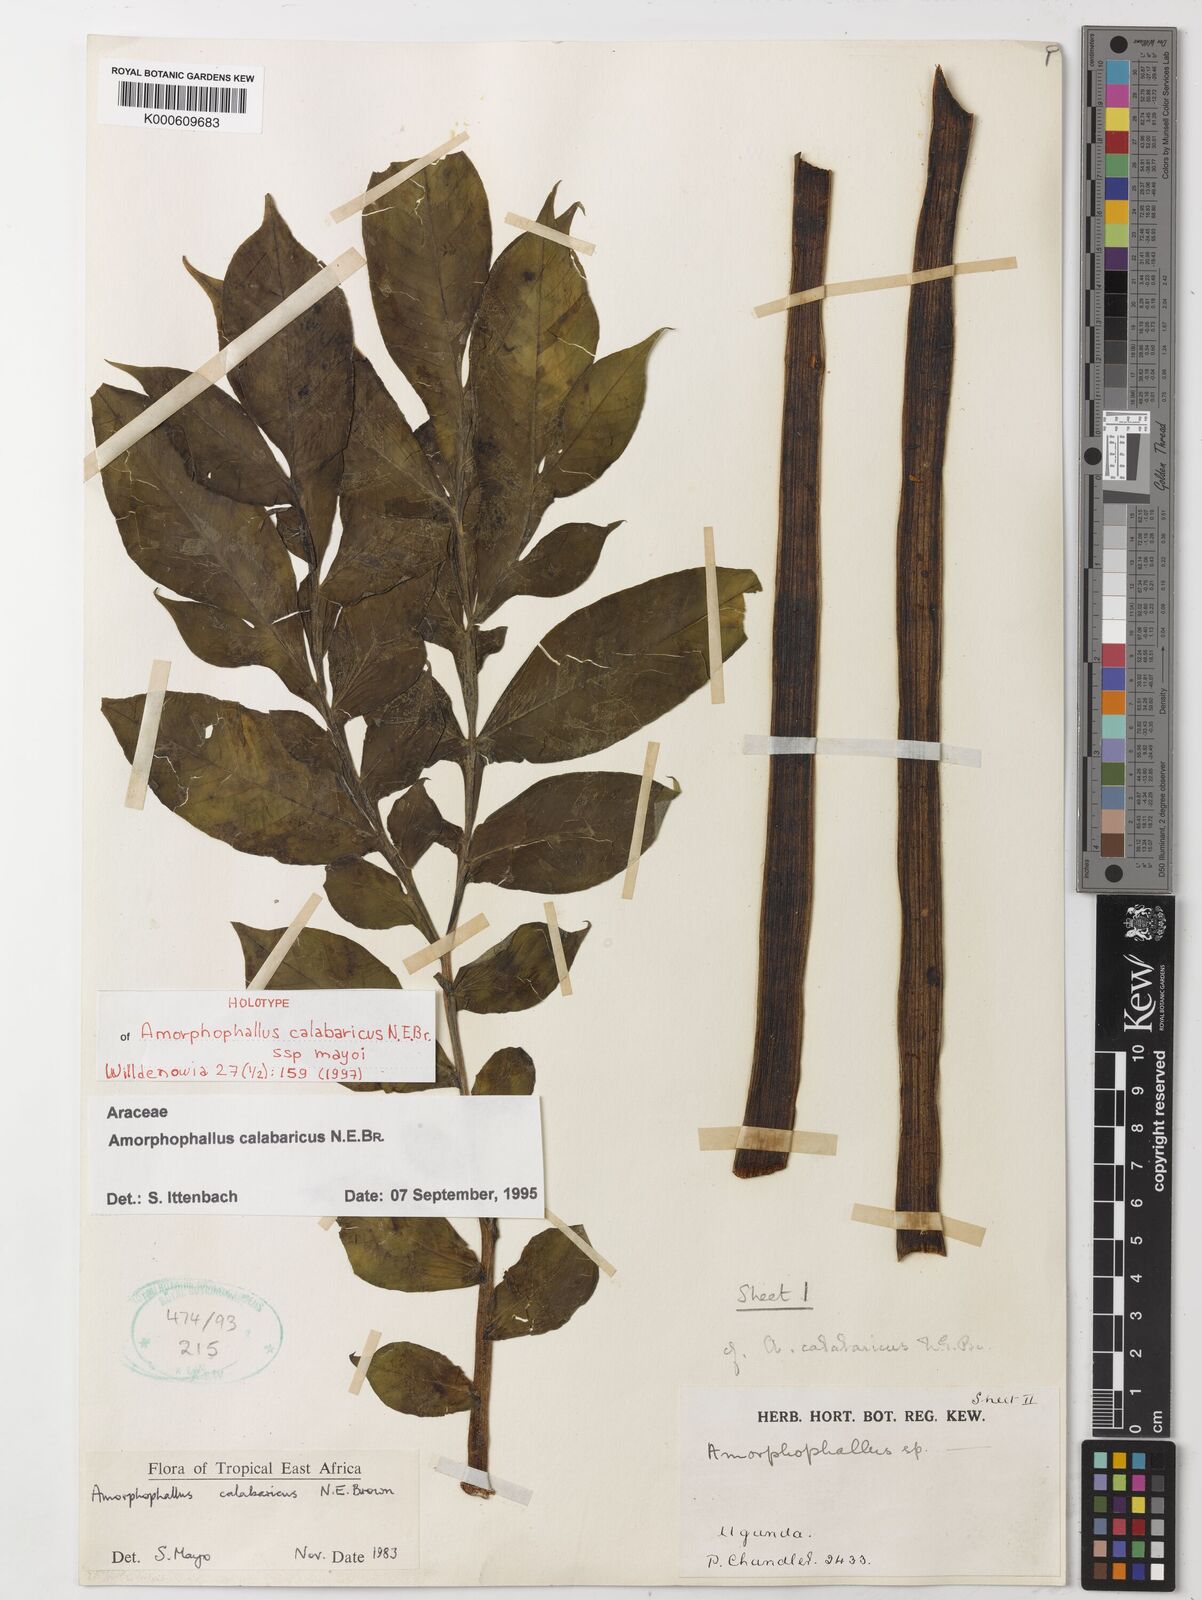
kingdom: Plantae
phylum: Tracheophyta
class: Liliopsida
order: Alismatales
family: Araceae
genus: Amorphophallus
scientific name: Amorphophallus calabaricus
